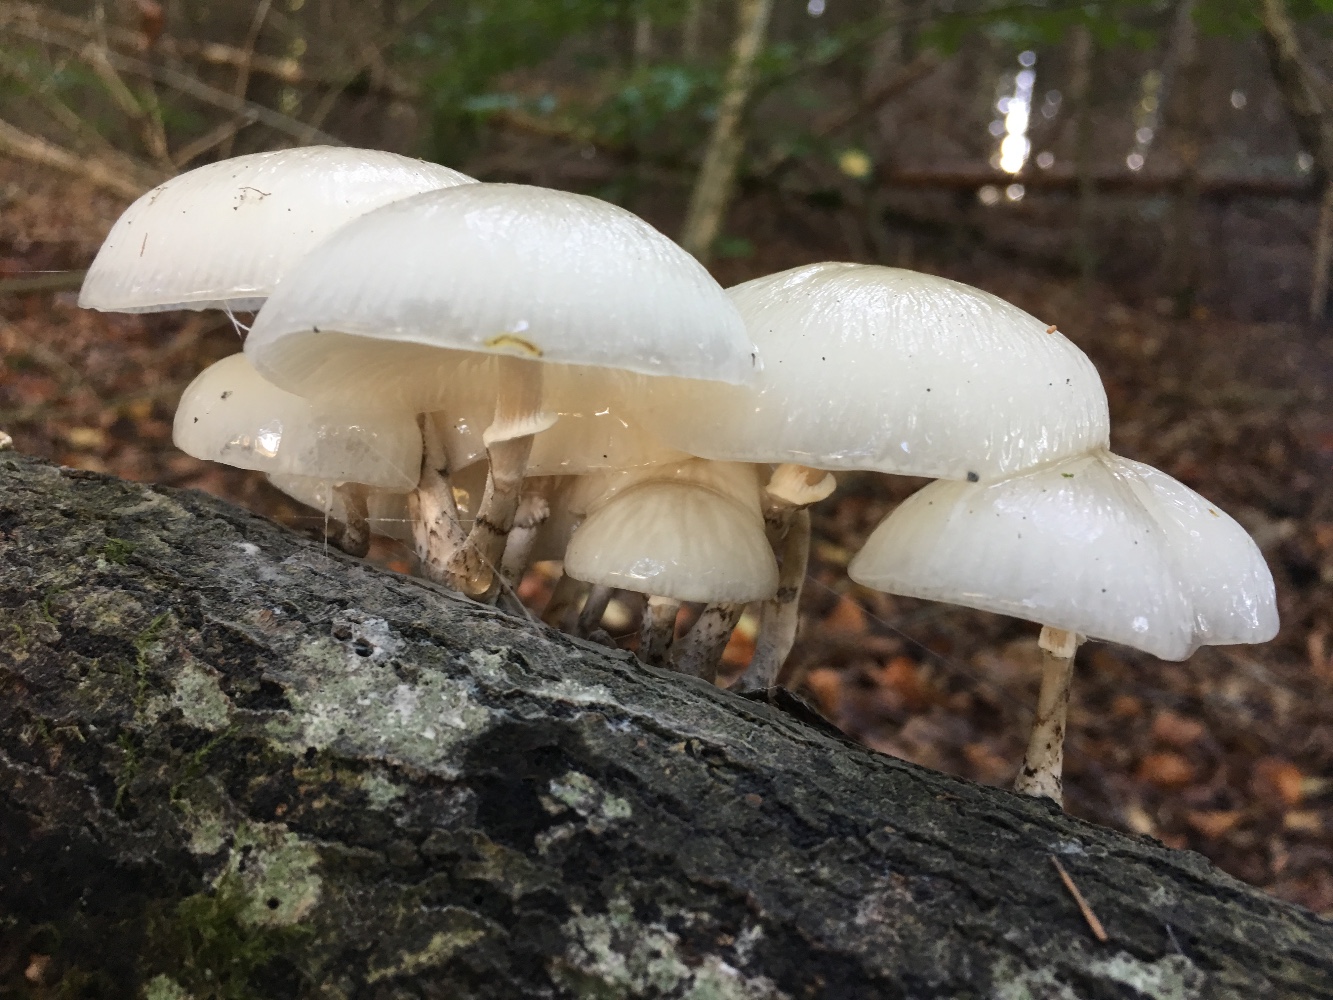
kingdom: Fungi
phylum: Basidiomycota
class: Agaricomycetes
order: Agaricales
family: Physalacriaceae
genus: Mucidula
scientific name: Mucidula mucida
